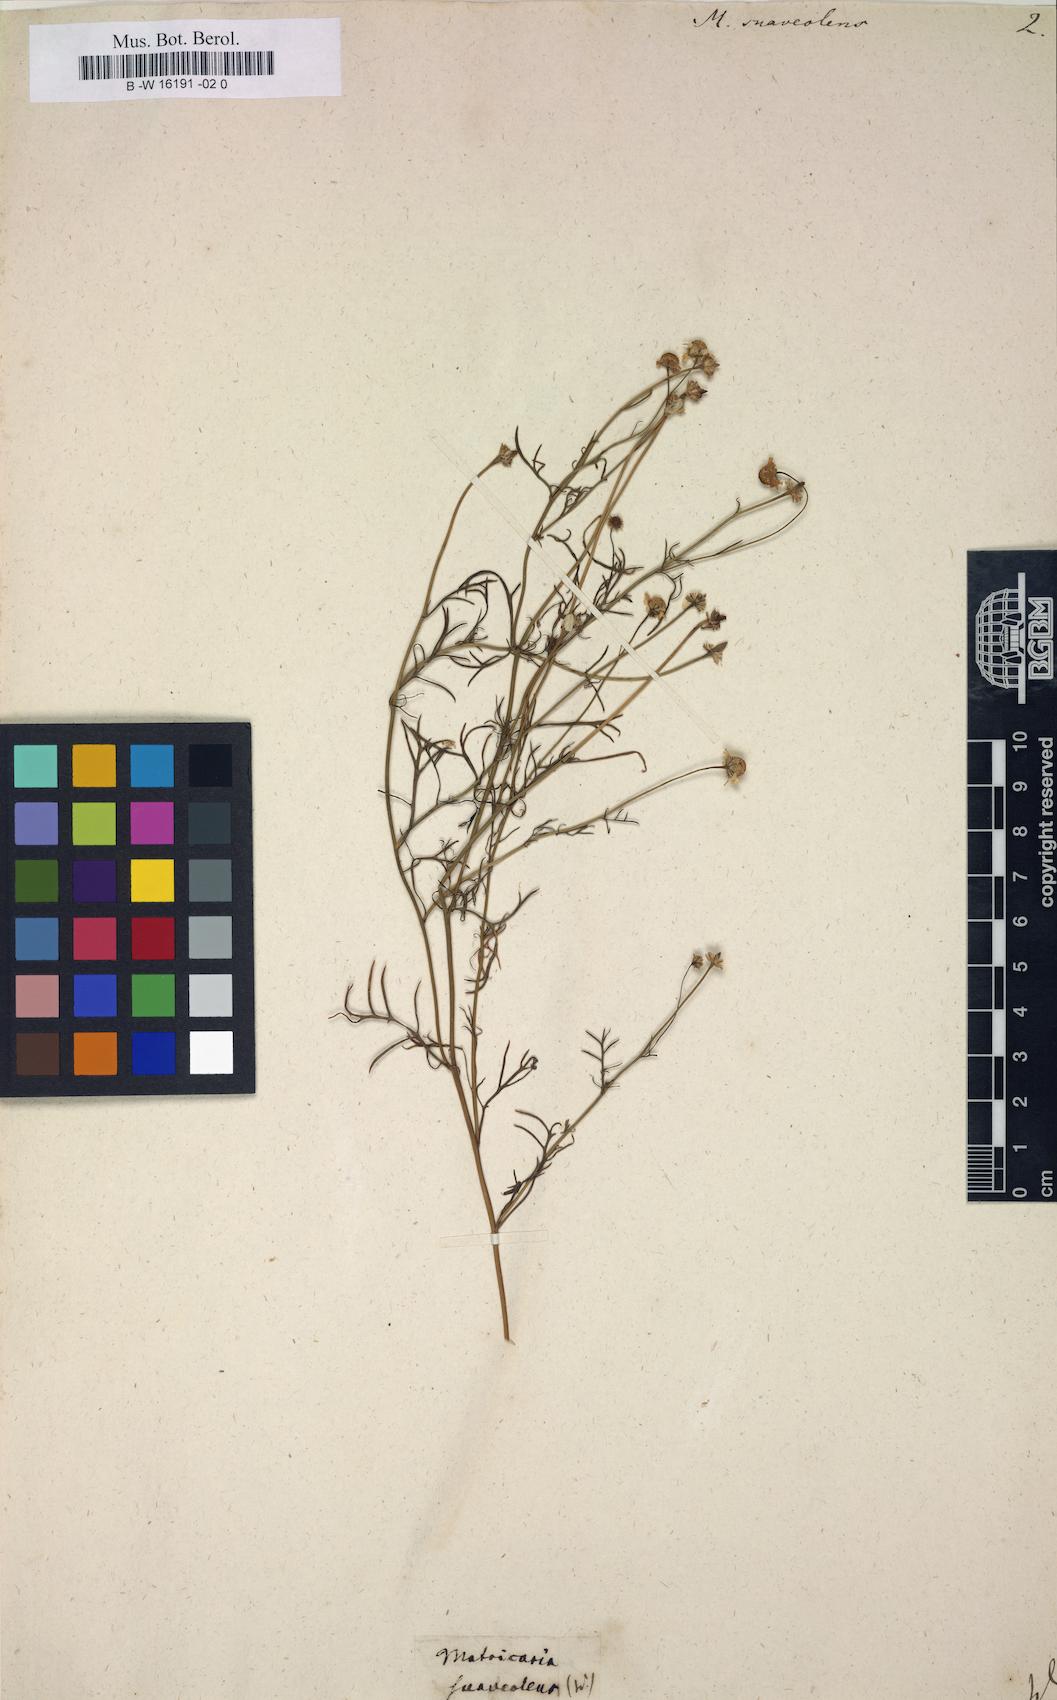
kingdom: Plantae
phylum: Tracheophyta
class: Magnoliopsida
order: Asterales
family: Asteraceae
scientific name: Asteraceae
